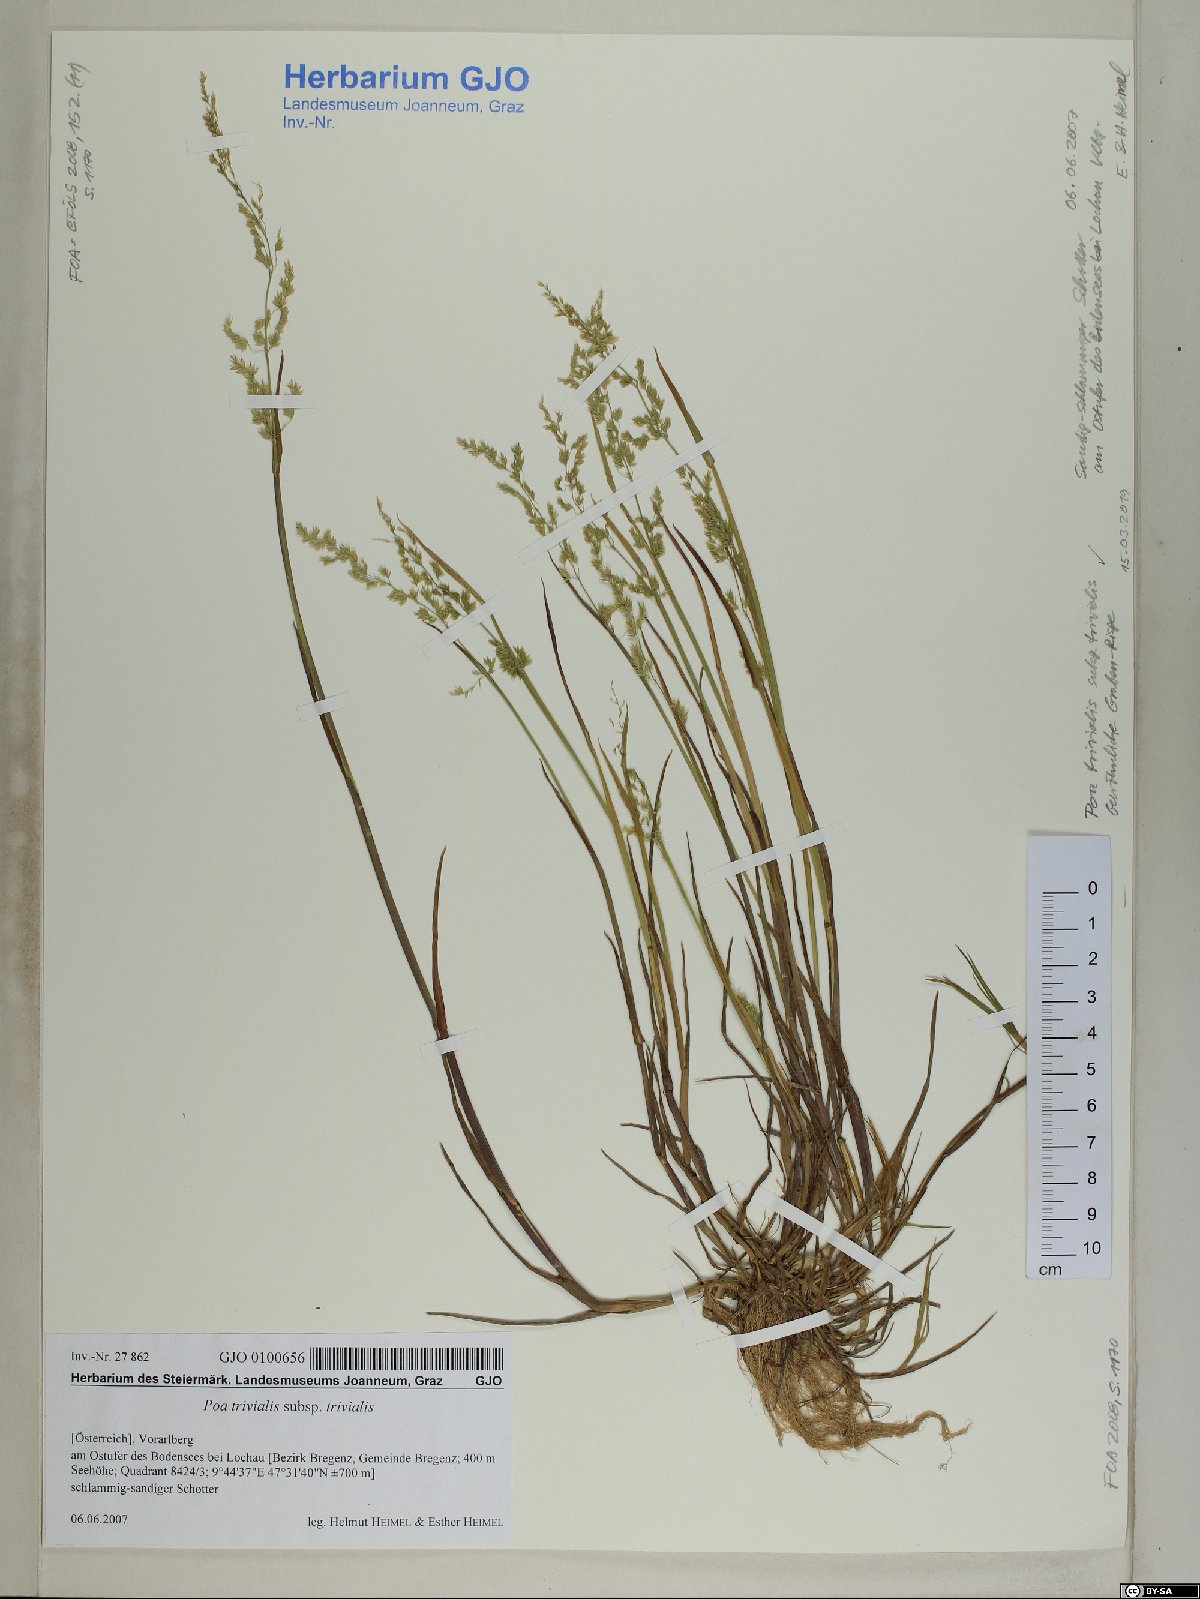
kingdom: Plantae
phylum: Tracheophyta
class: Liliopsida
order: Poales
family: Poaceae
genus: Poa
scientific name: Poa trivialis
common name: Rough bluegrass
